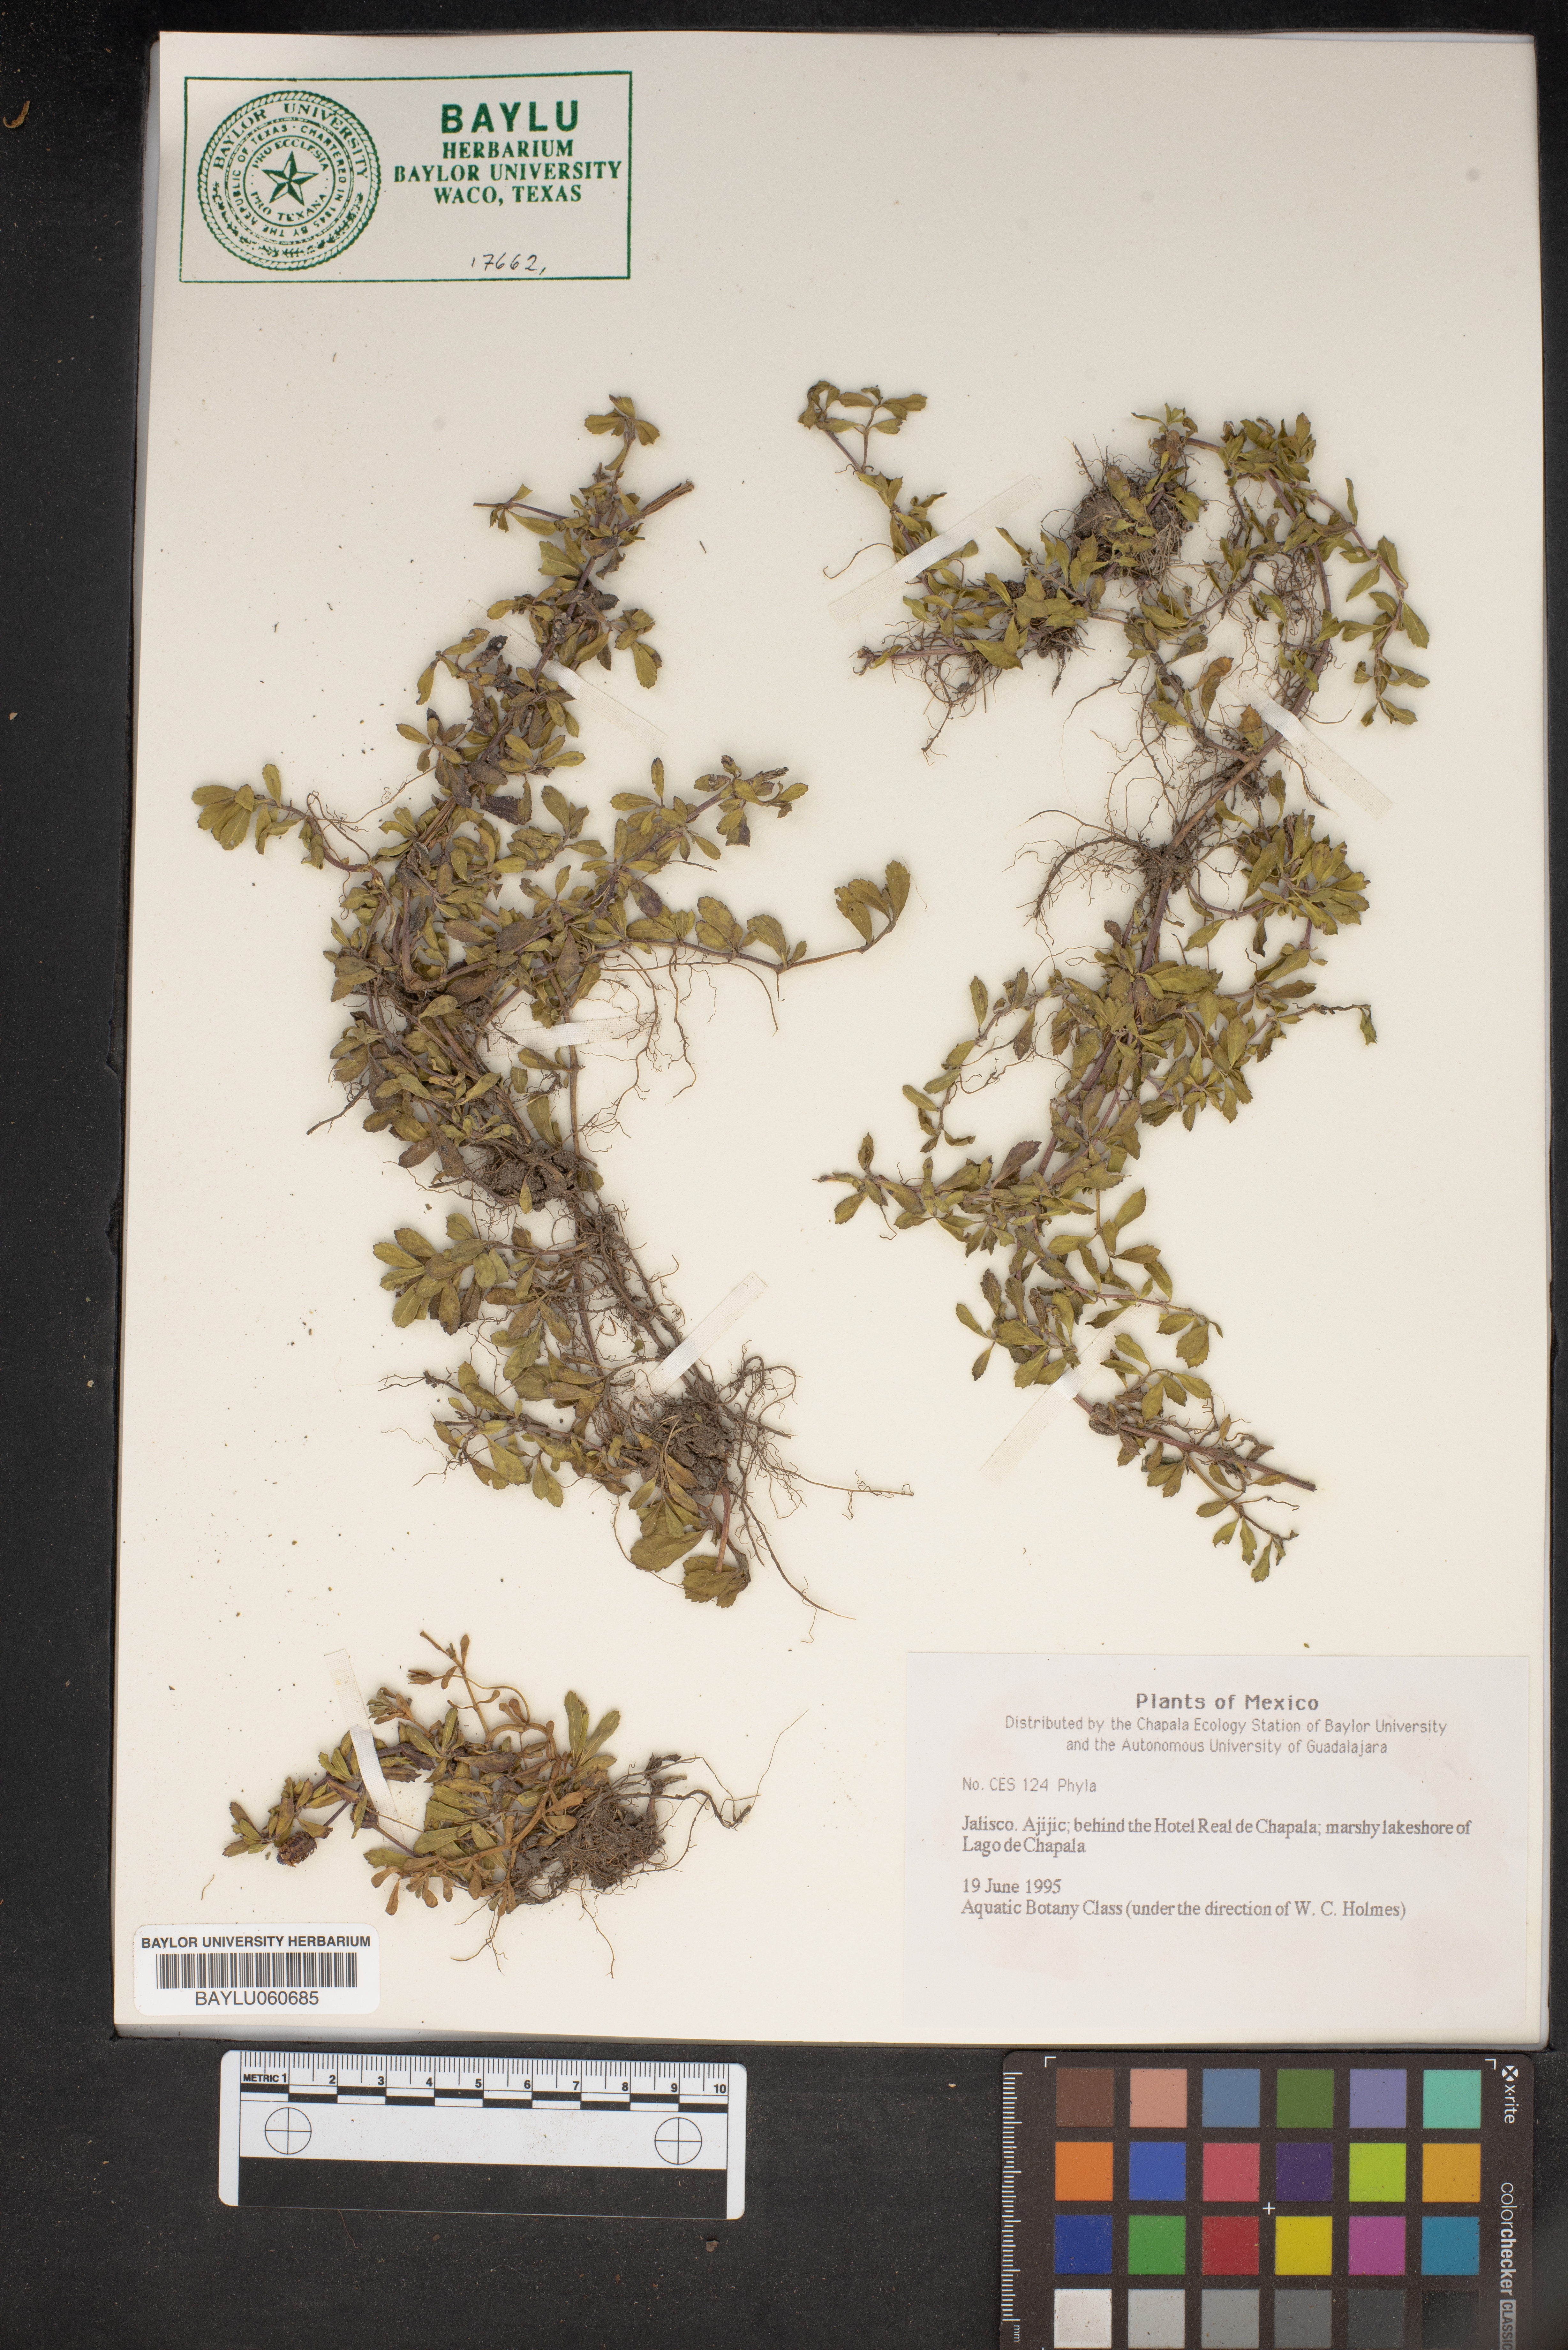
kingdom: Plantae
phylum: Tracheophyta
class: Magnoliopsida
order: Lamiales
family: Verbenaceae
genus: Phyla
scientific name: Phyla
